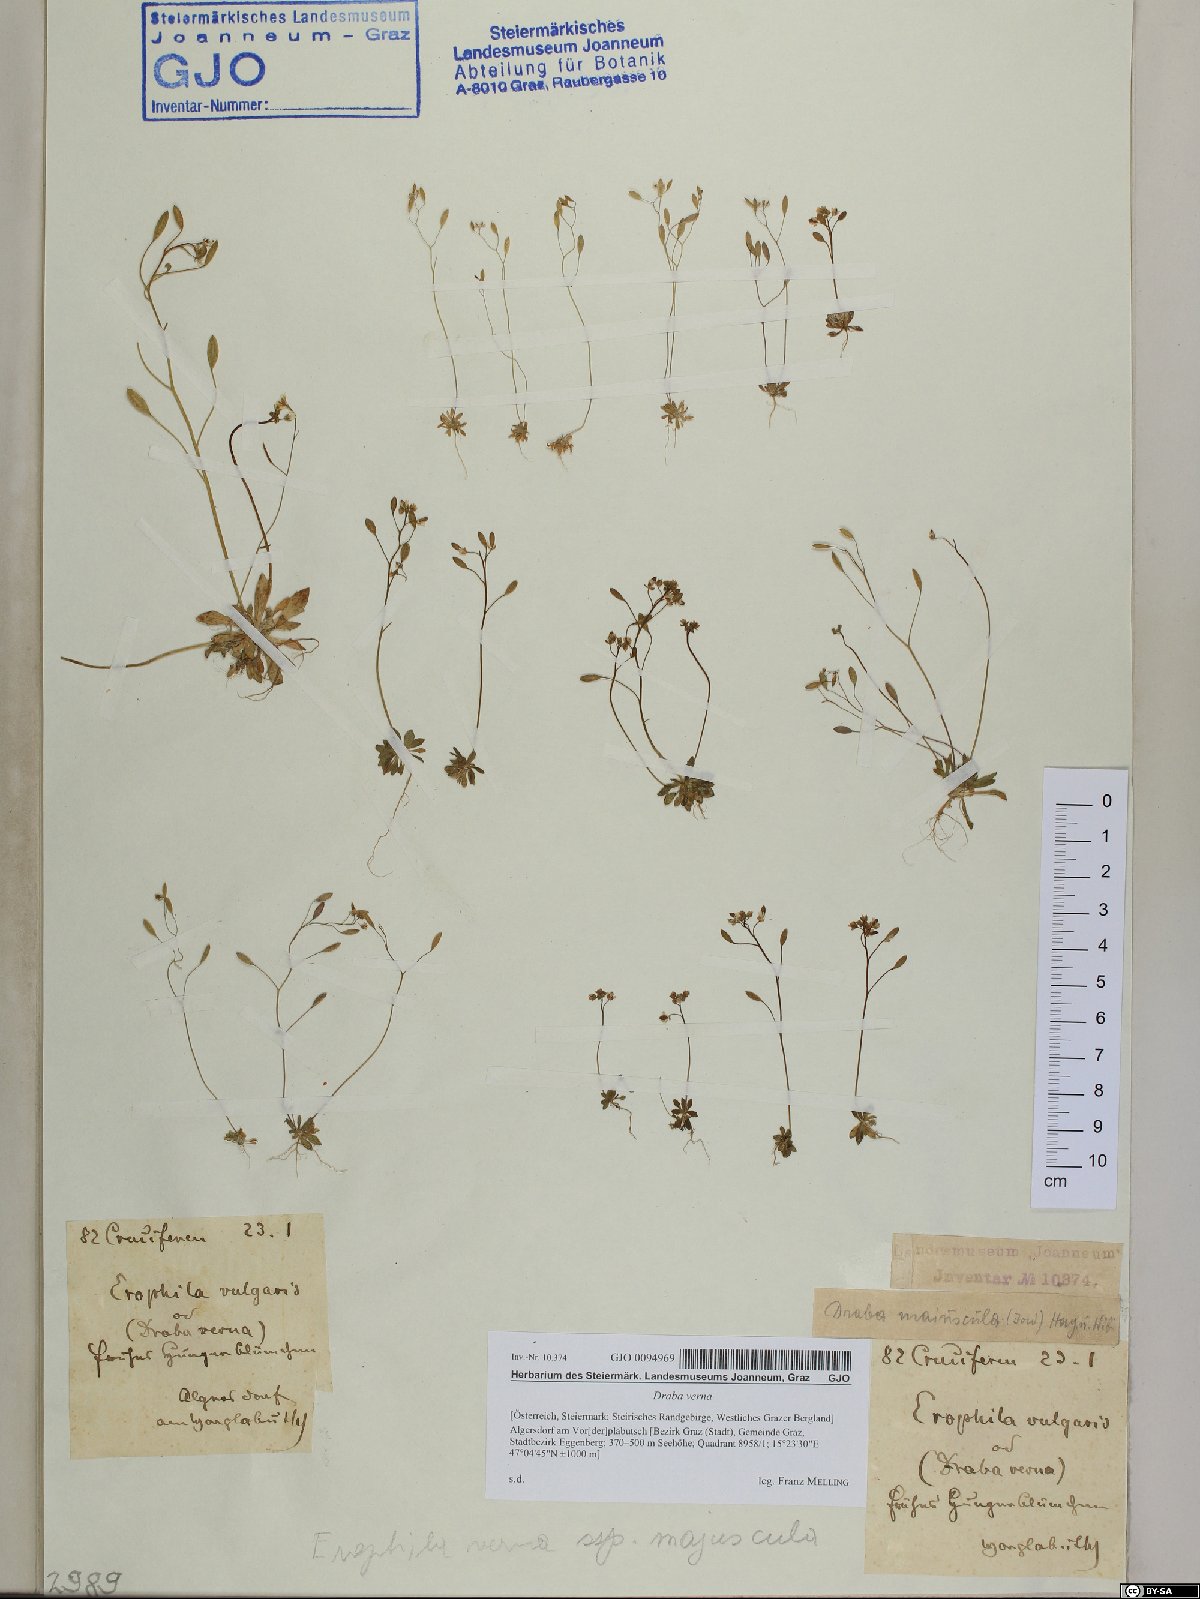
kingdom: Plantae
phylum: Tracheophyta
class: Magnoliopsida
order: Brassicales
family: Brassicaceae
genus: Draba
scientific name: Draba verna
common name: Spring draba
